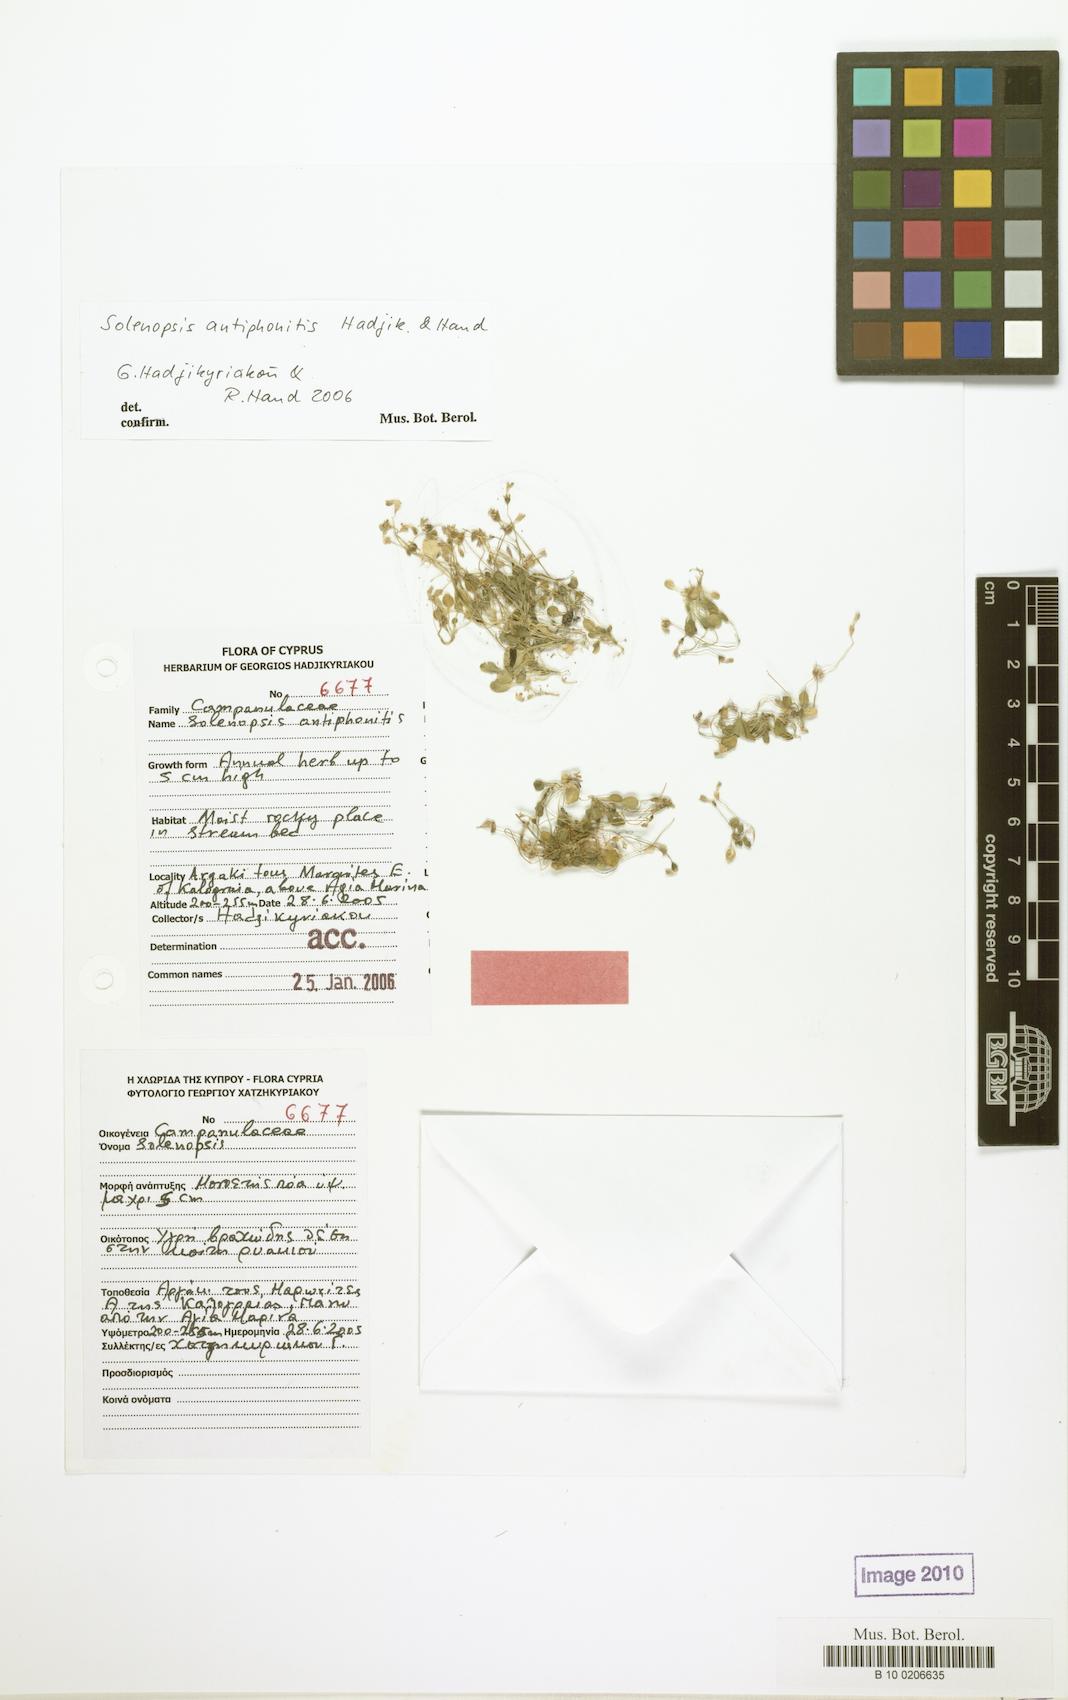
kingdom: Plantae
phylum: Tracheophyta
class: Magnoliopsida
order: Asterales
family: Campanulaceae
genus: Solenopsis
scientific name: Solenopsis antiphonitis
